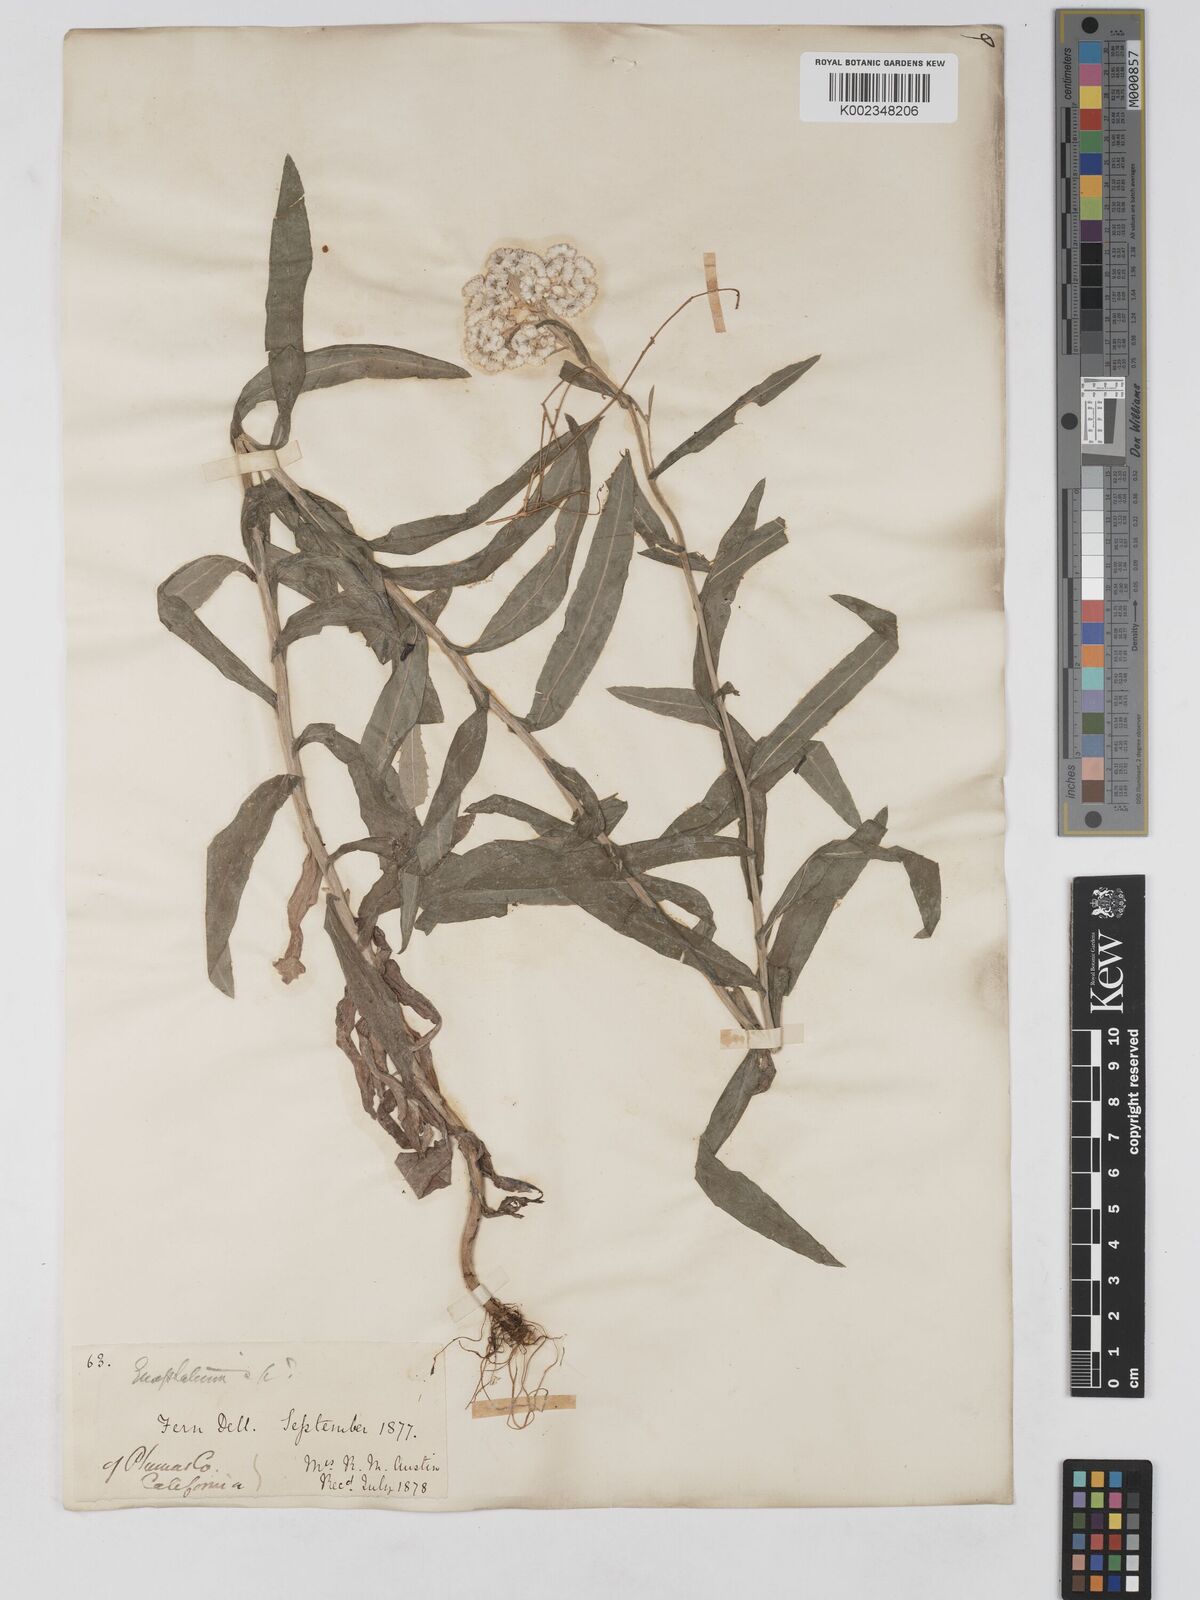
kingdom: Plantae
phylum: Tracheophyta
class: Magnoliopsida
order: Asterales
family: Asteraceae
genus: Anaphalis
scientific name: Anaphalis margaritacea
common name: Pearly everlasting
